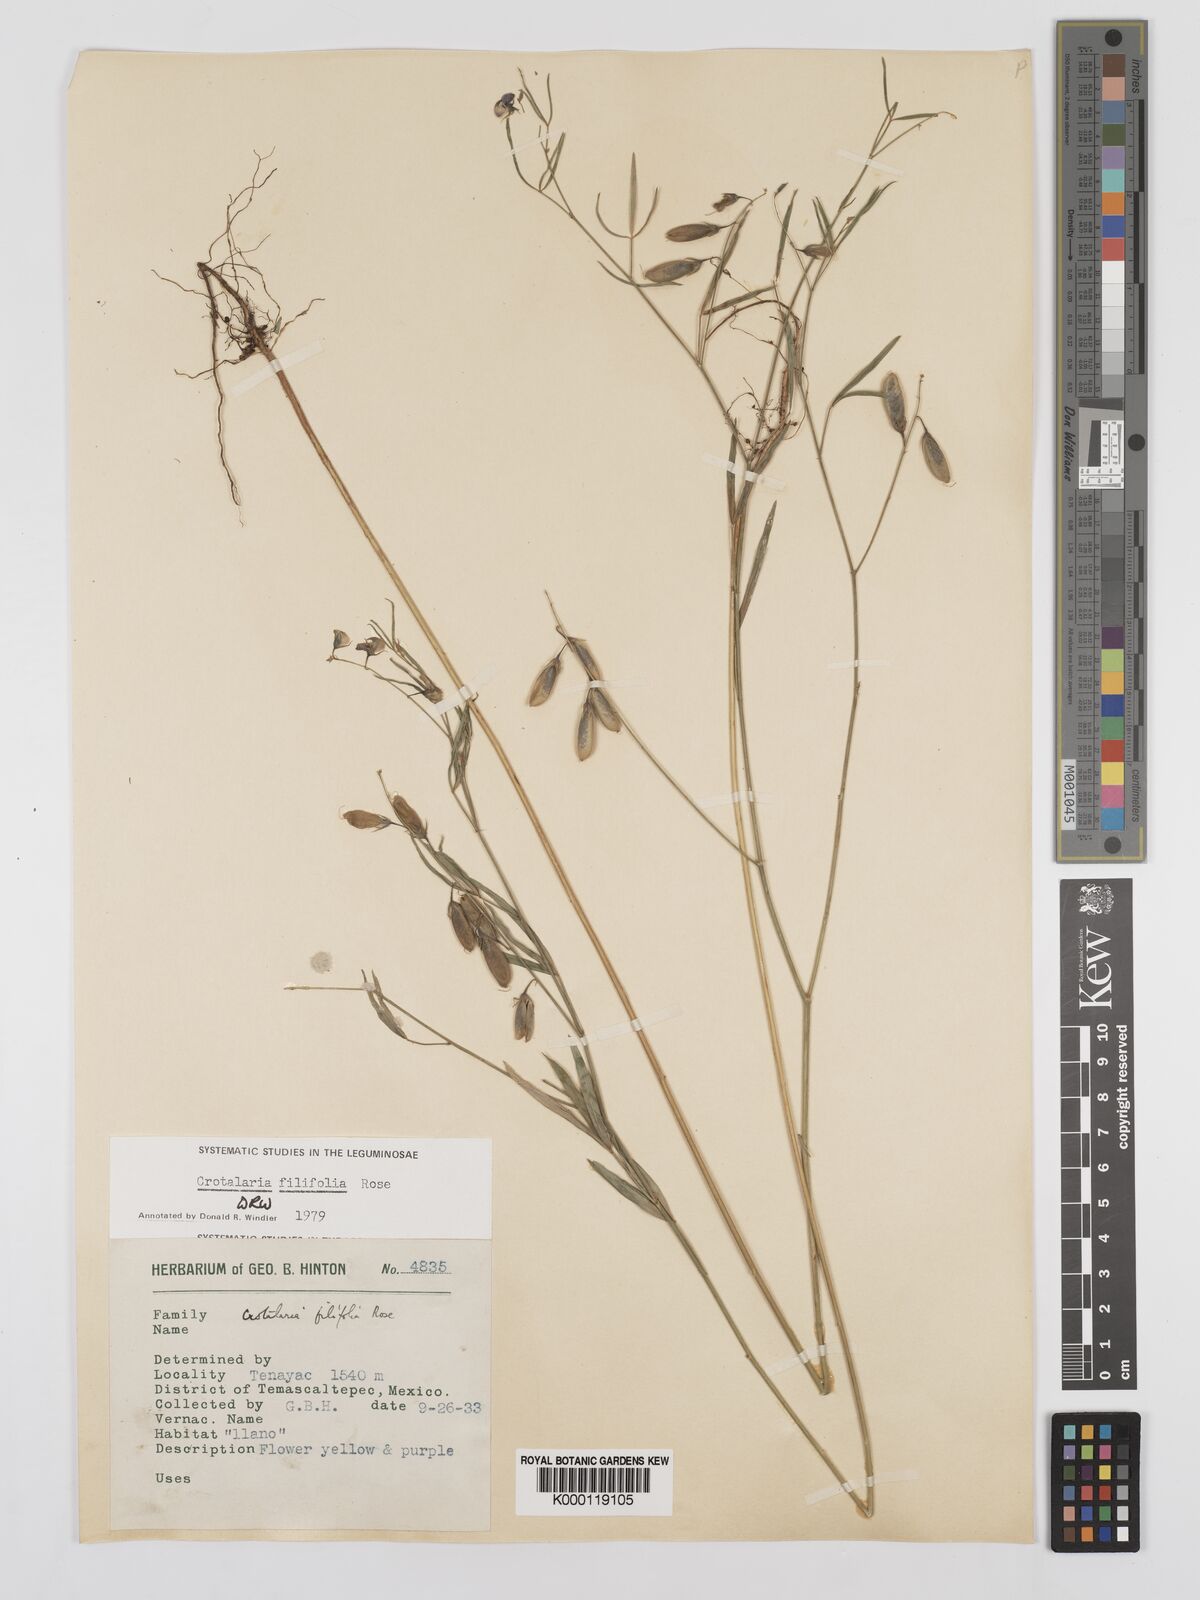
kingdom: Plantae
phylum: Tracheophyta
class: Magnoliopsida
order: Fabales
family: Fabaceae
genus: Crotalaria
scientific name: Crotalaria filifolia
